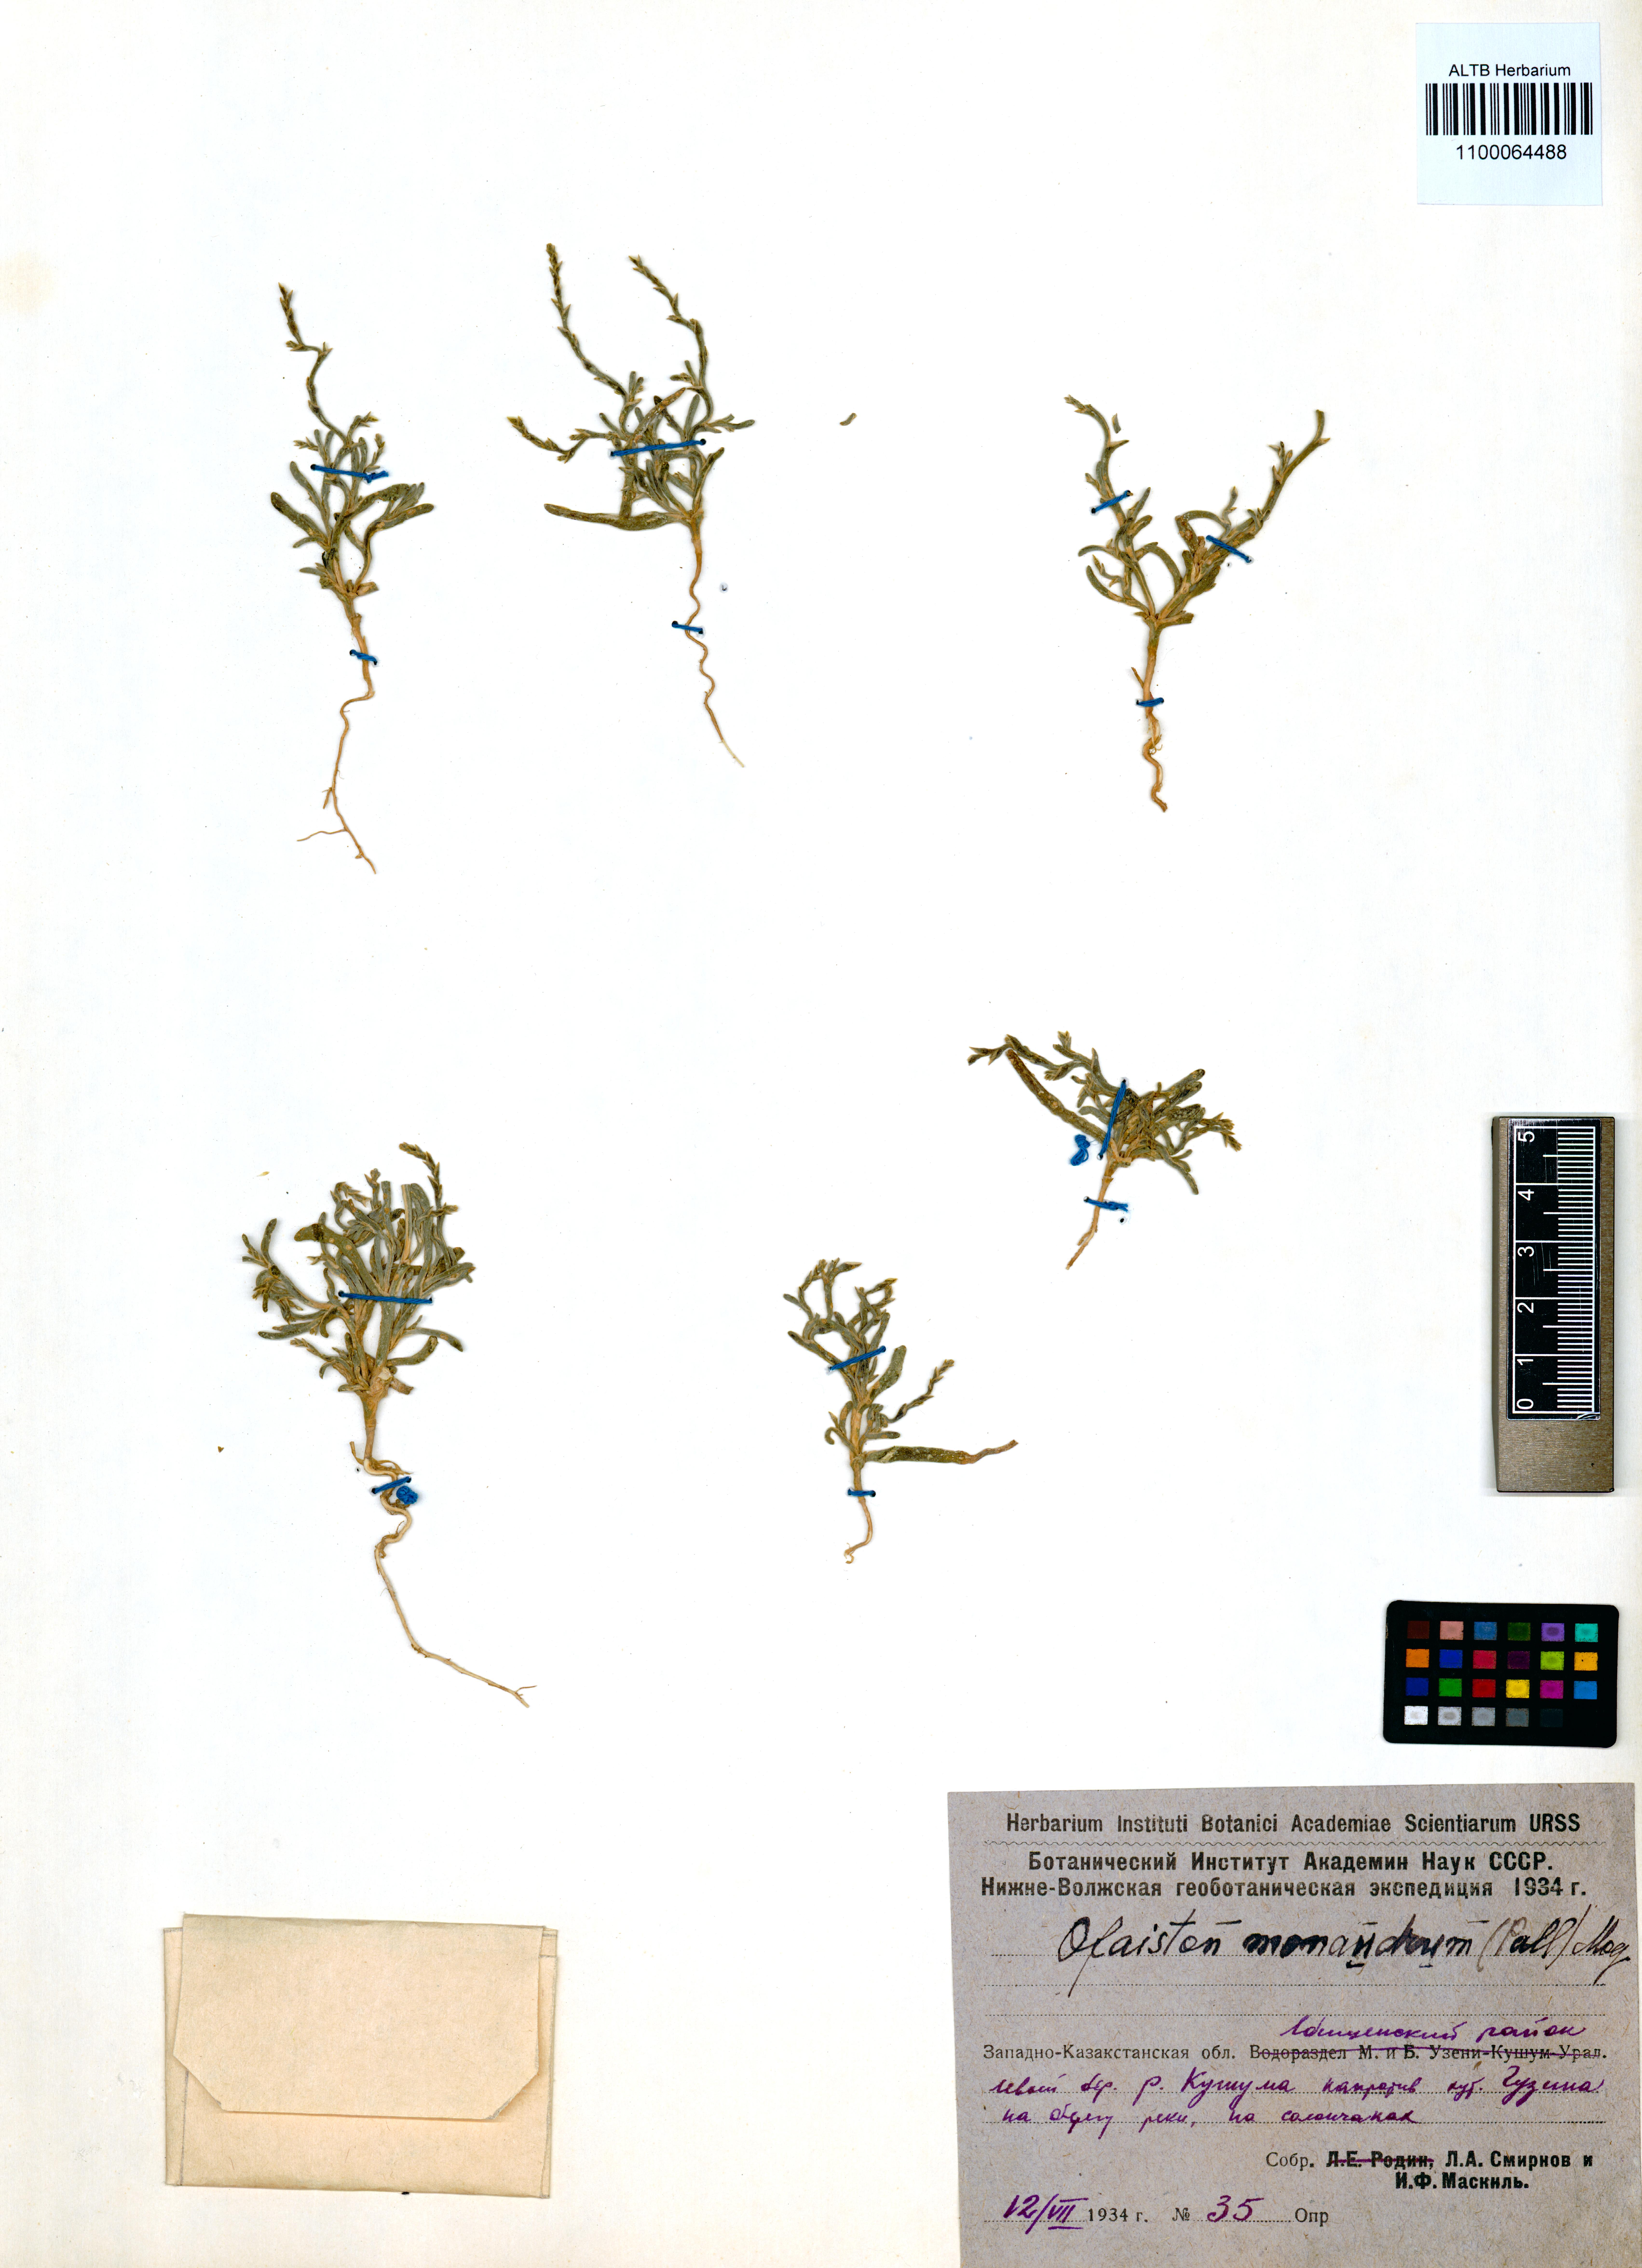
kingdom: Plantae
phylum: Tracheophyta
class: Magnoliopsida
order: Caryophyllales
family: Amaranthaceae
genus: Ofaiston
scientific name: Ofaiston monandrum
